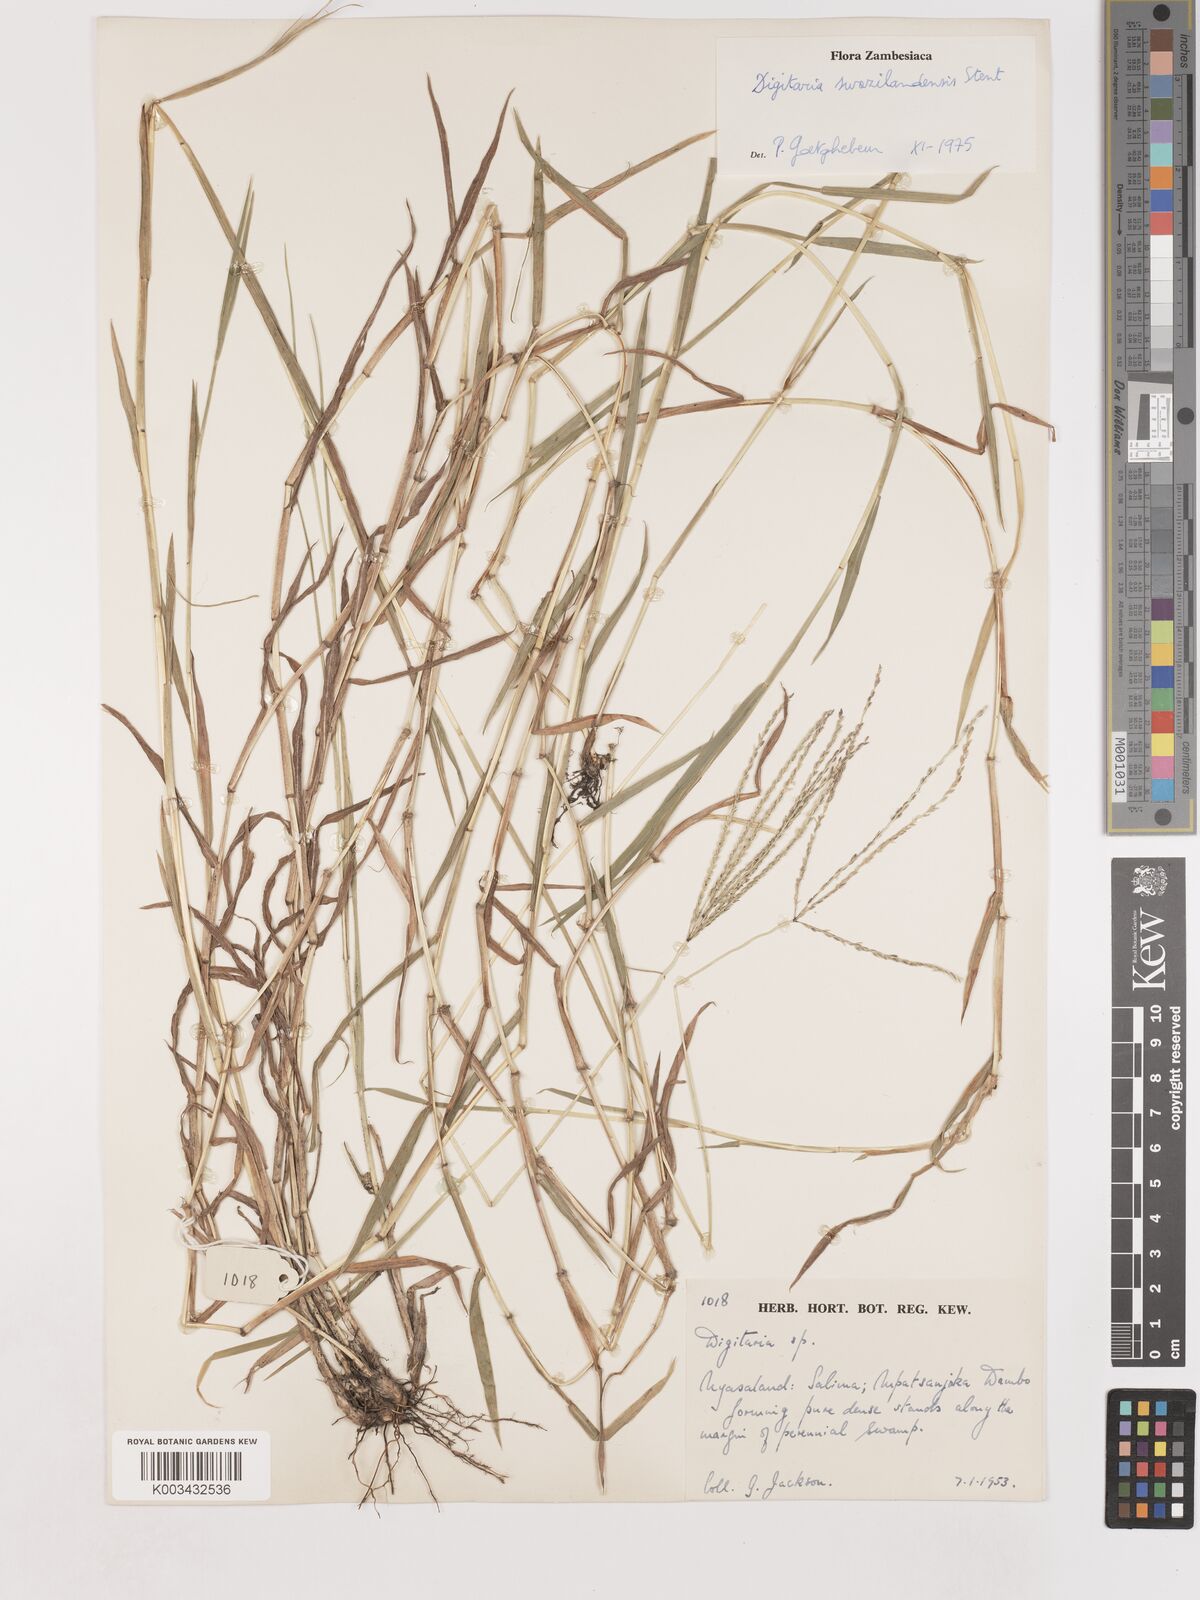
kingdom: Plantae
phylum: Tracheophyta
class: Liliopsida
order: Poales
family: Poaceae
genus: Digitaria
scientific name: Digitaria didactyla
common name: Blue couch
